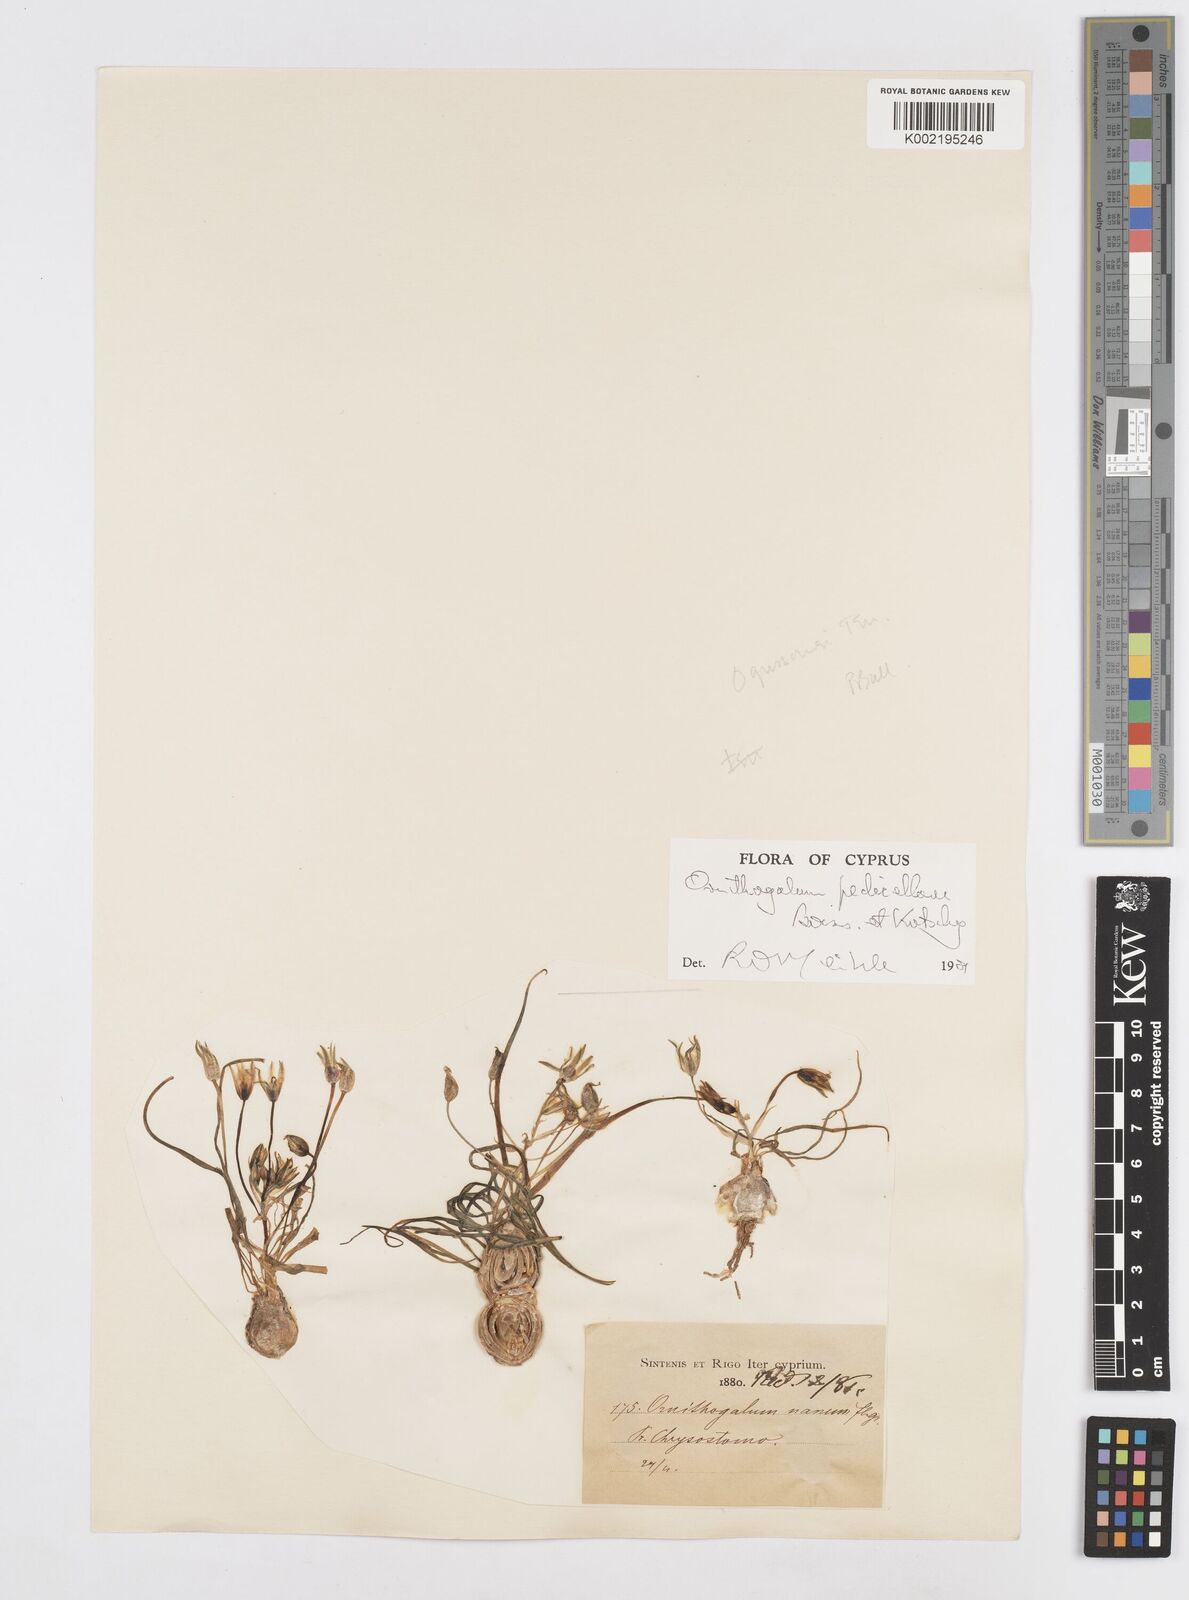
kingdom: Plantae
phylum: Tracheophyta
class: Liliopsida
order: Asparagales
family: Asparagaceae
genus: Ornithogalum
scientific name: Ornithogalum pedicellare
